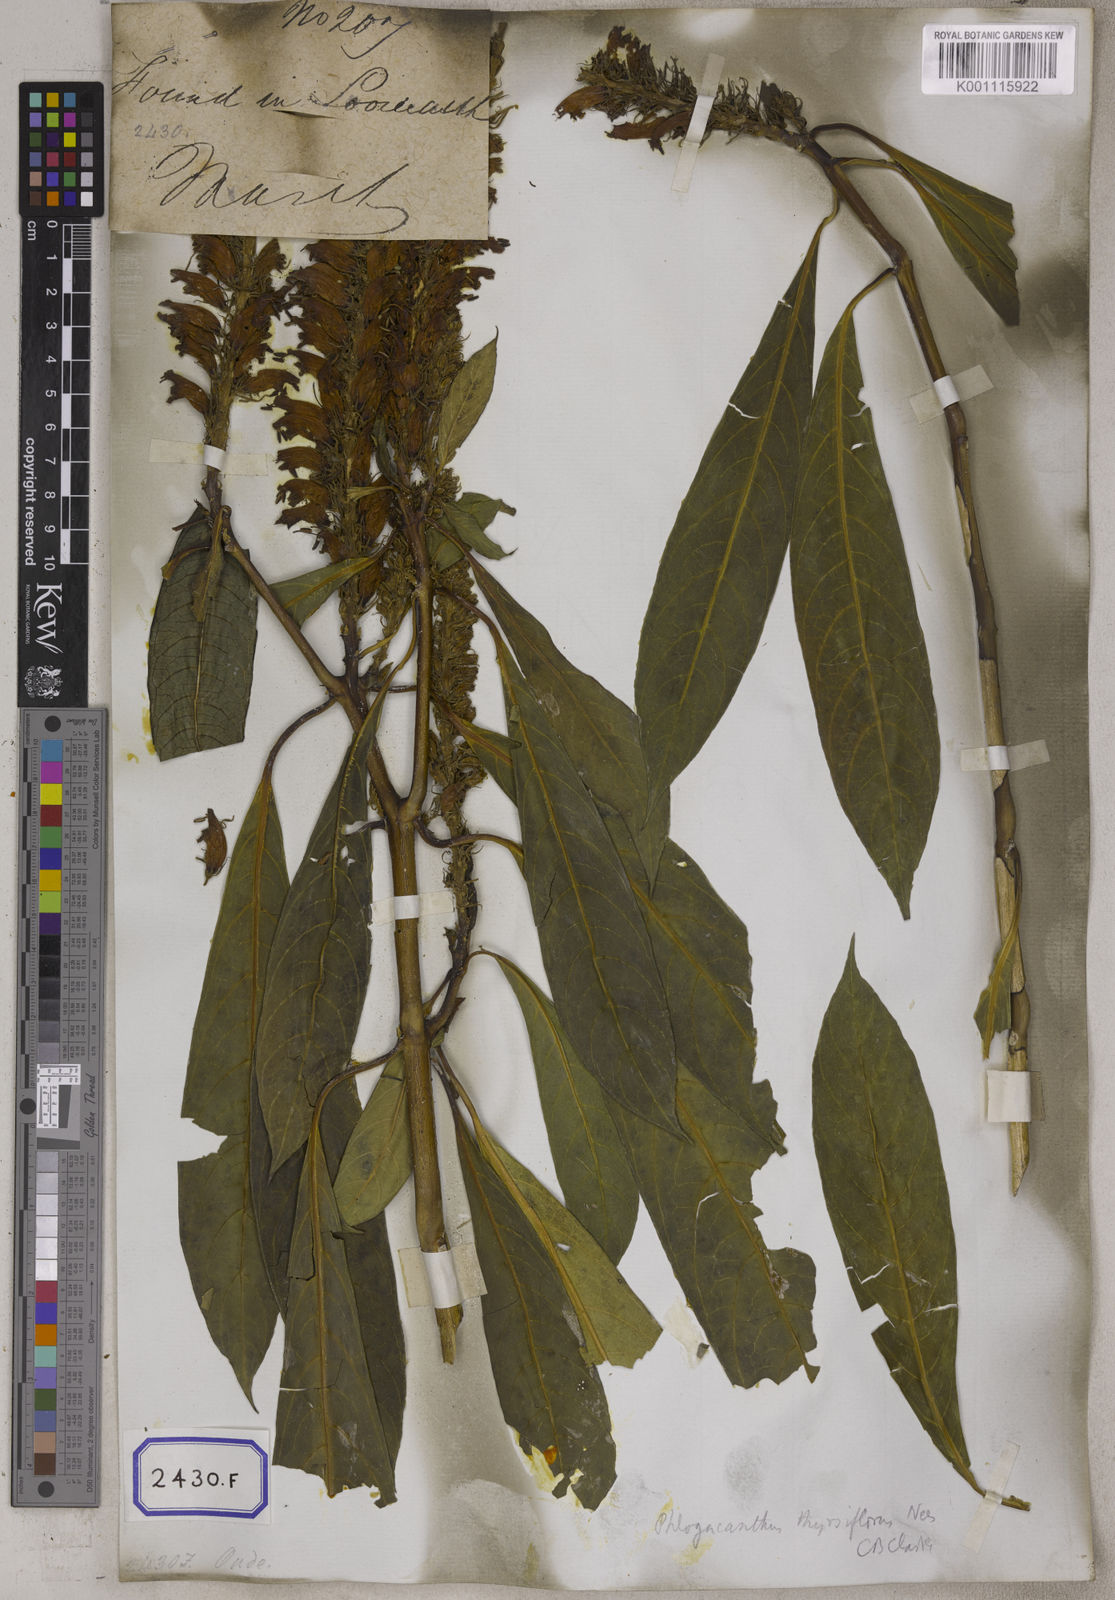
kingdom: Plantae
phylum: Tracheophyta
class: Magnoliopsida
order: Lamiales
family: Acanthaceae
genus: Justicia
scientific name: Justicia
